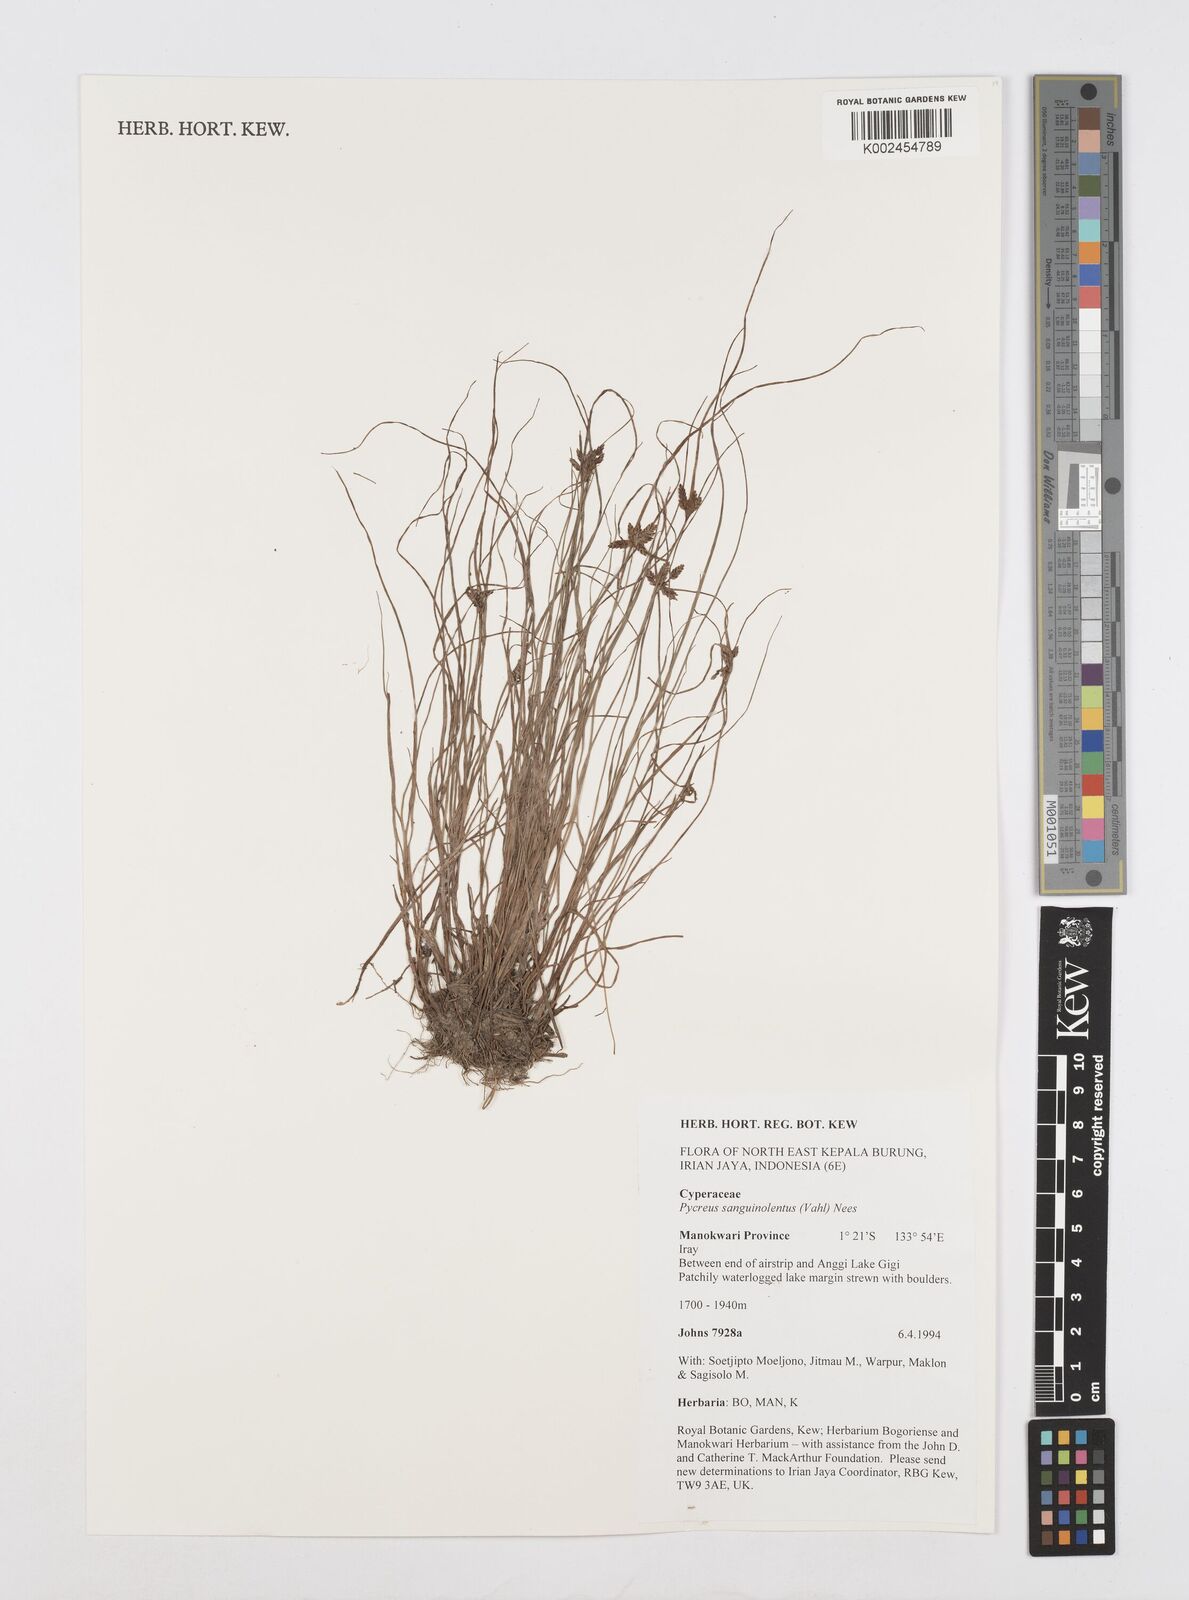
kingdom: Plantae
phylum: Tracheophyta
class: Liliopsida
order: Poales
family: Cyperaceae
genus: Cyperus
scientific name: Cyperus sanguinolentus
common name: Purpleglume flatsedge
